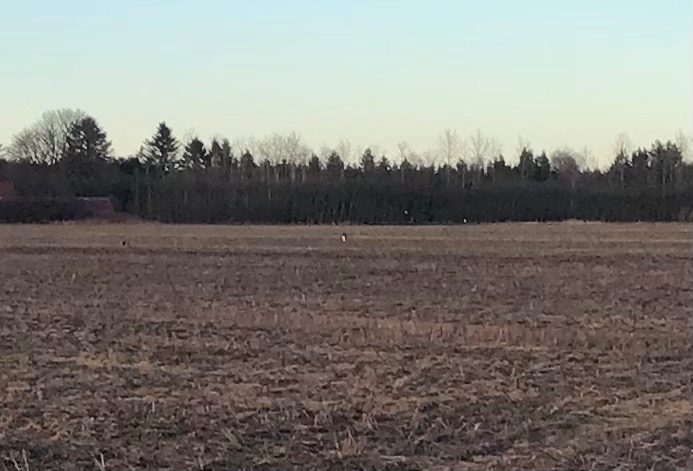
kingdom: Animalia
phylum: Chordata
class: Aves
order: Charadriiformes
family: Charadriidae
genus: Vanellus
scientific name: Vanellus vanellus
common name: Vibe
